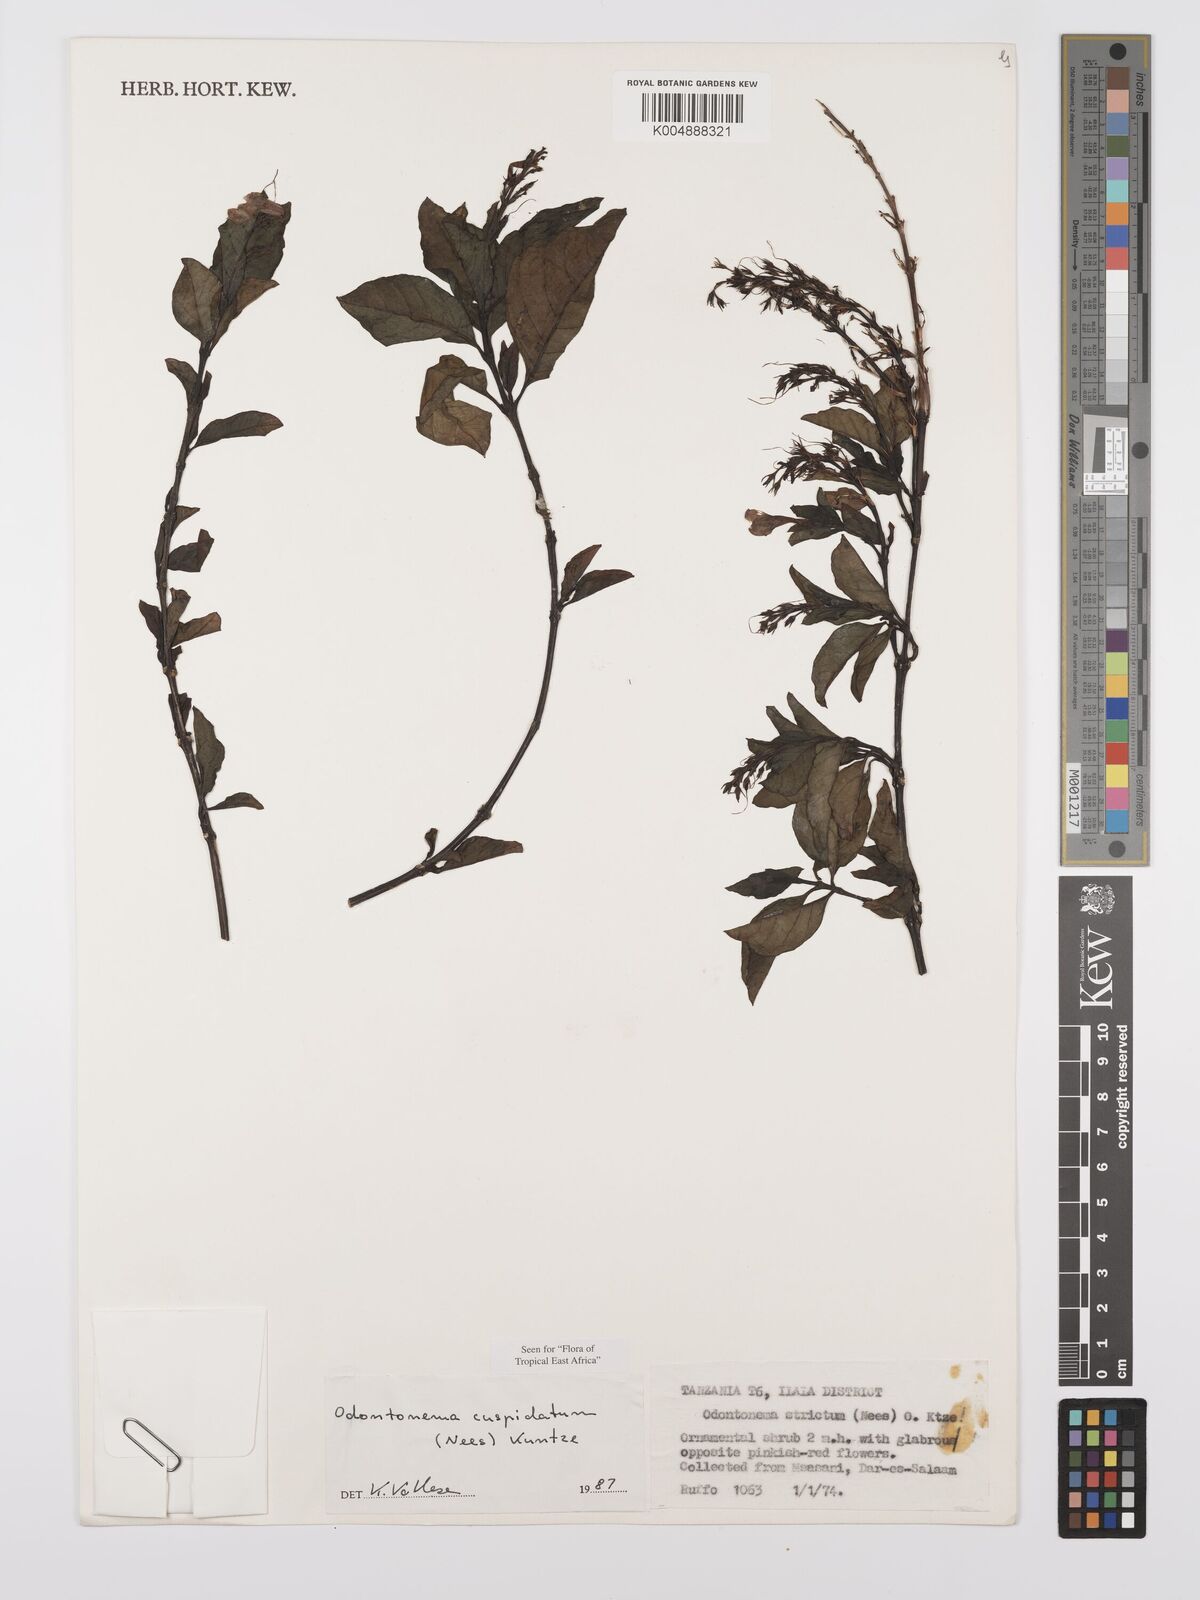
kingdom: Plantae
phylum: Tracheophyta
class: Magnoliopsida
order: Lamiales
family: Acanthaceae
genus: Odontonema
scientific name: Odontonema cuspidatum
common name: Mottled toothedthread
